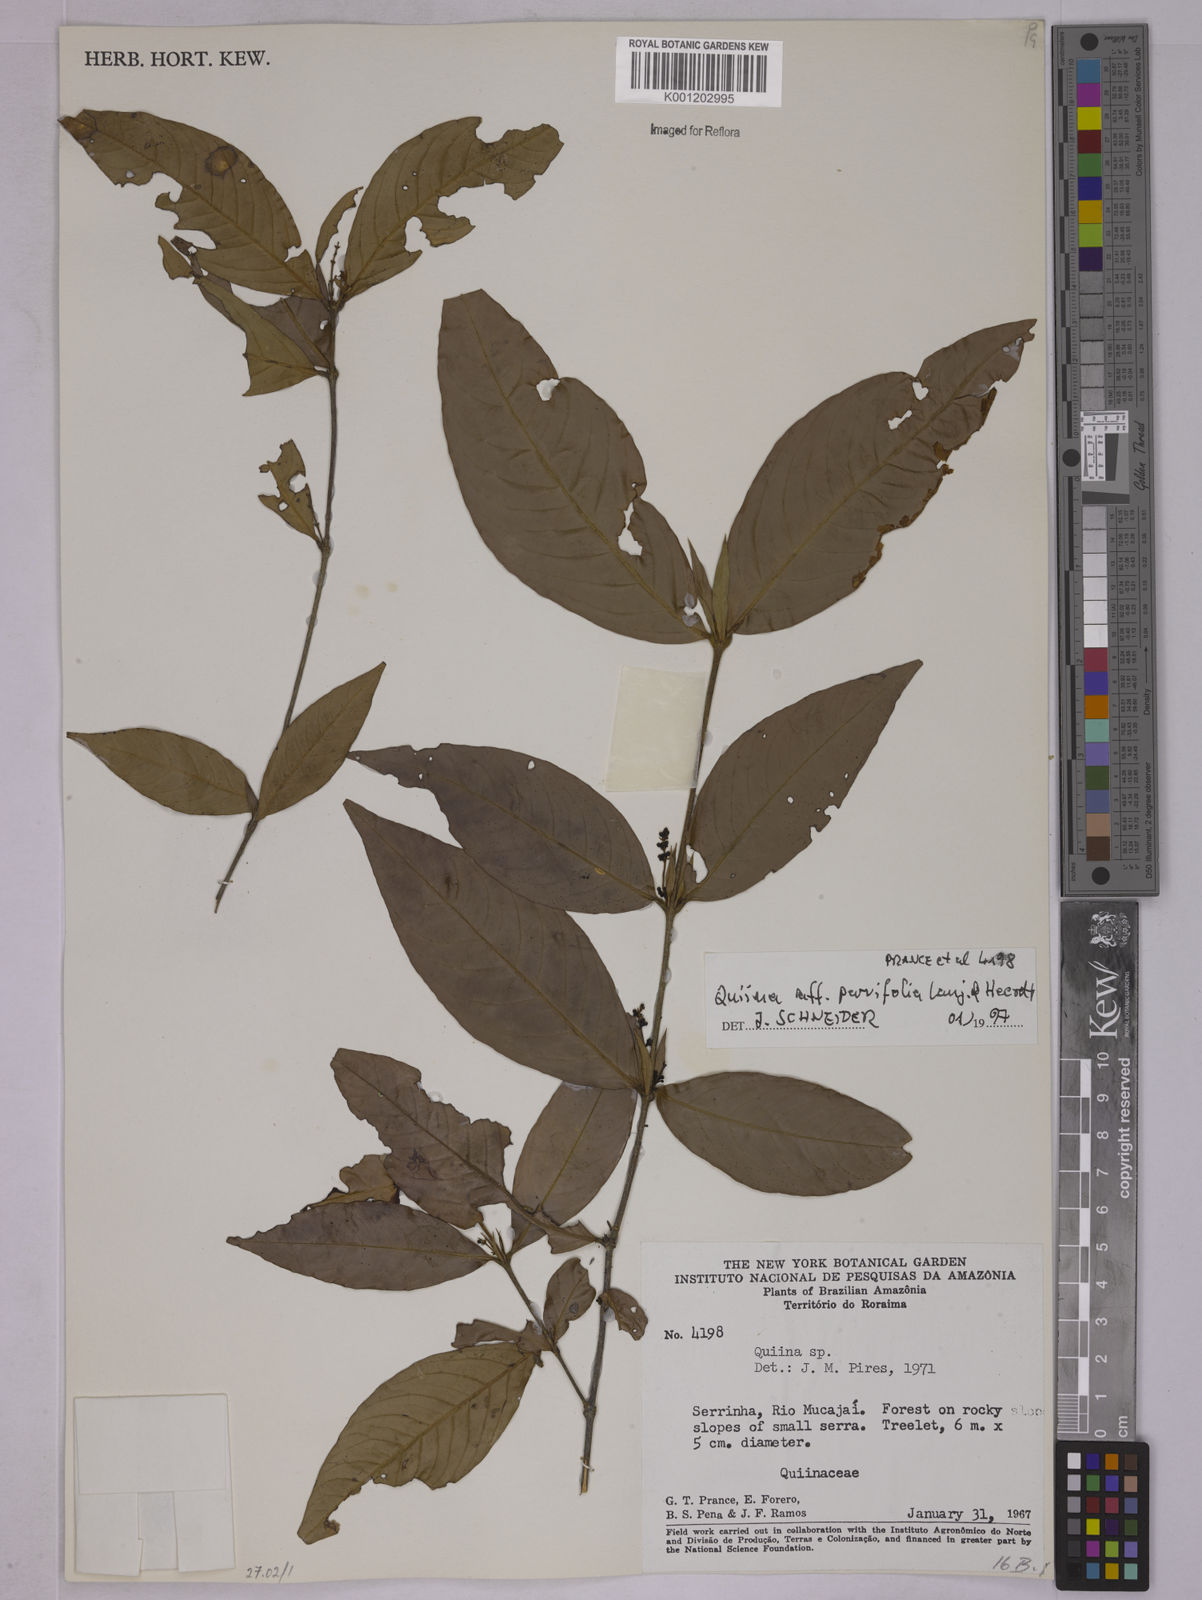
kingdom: Plantae
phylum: Tracheophyta
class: Magnoliopsida
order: Malpighiales
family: Quiinaceae
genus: Quiina
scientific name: Quiina parvifolia
